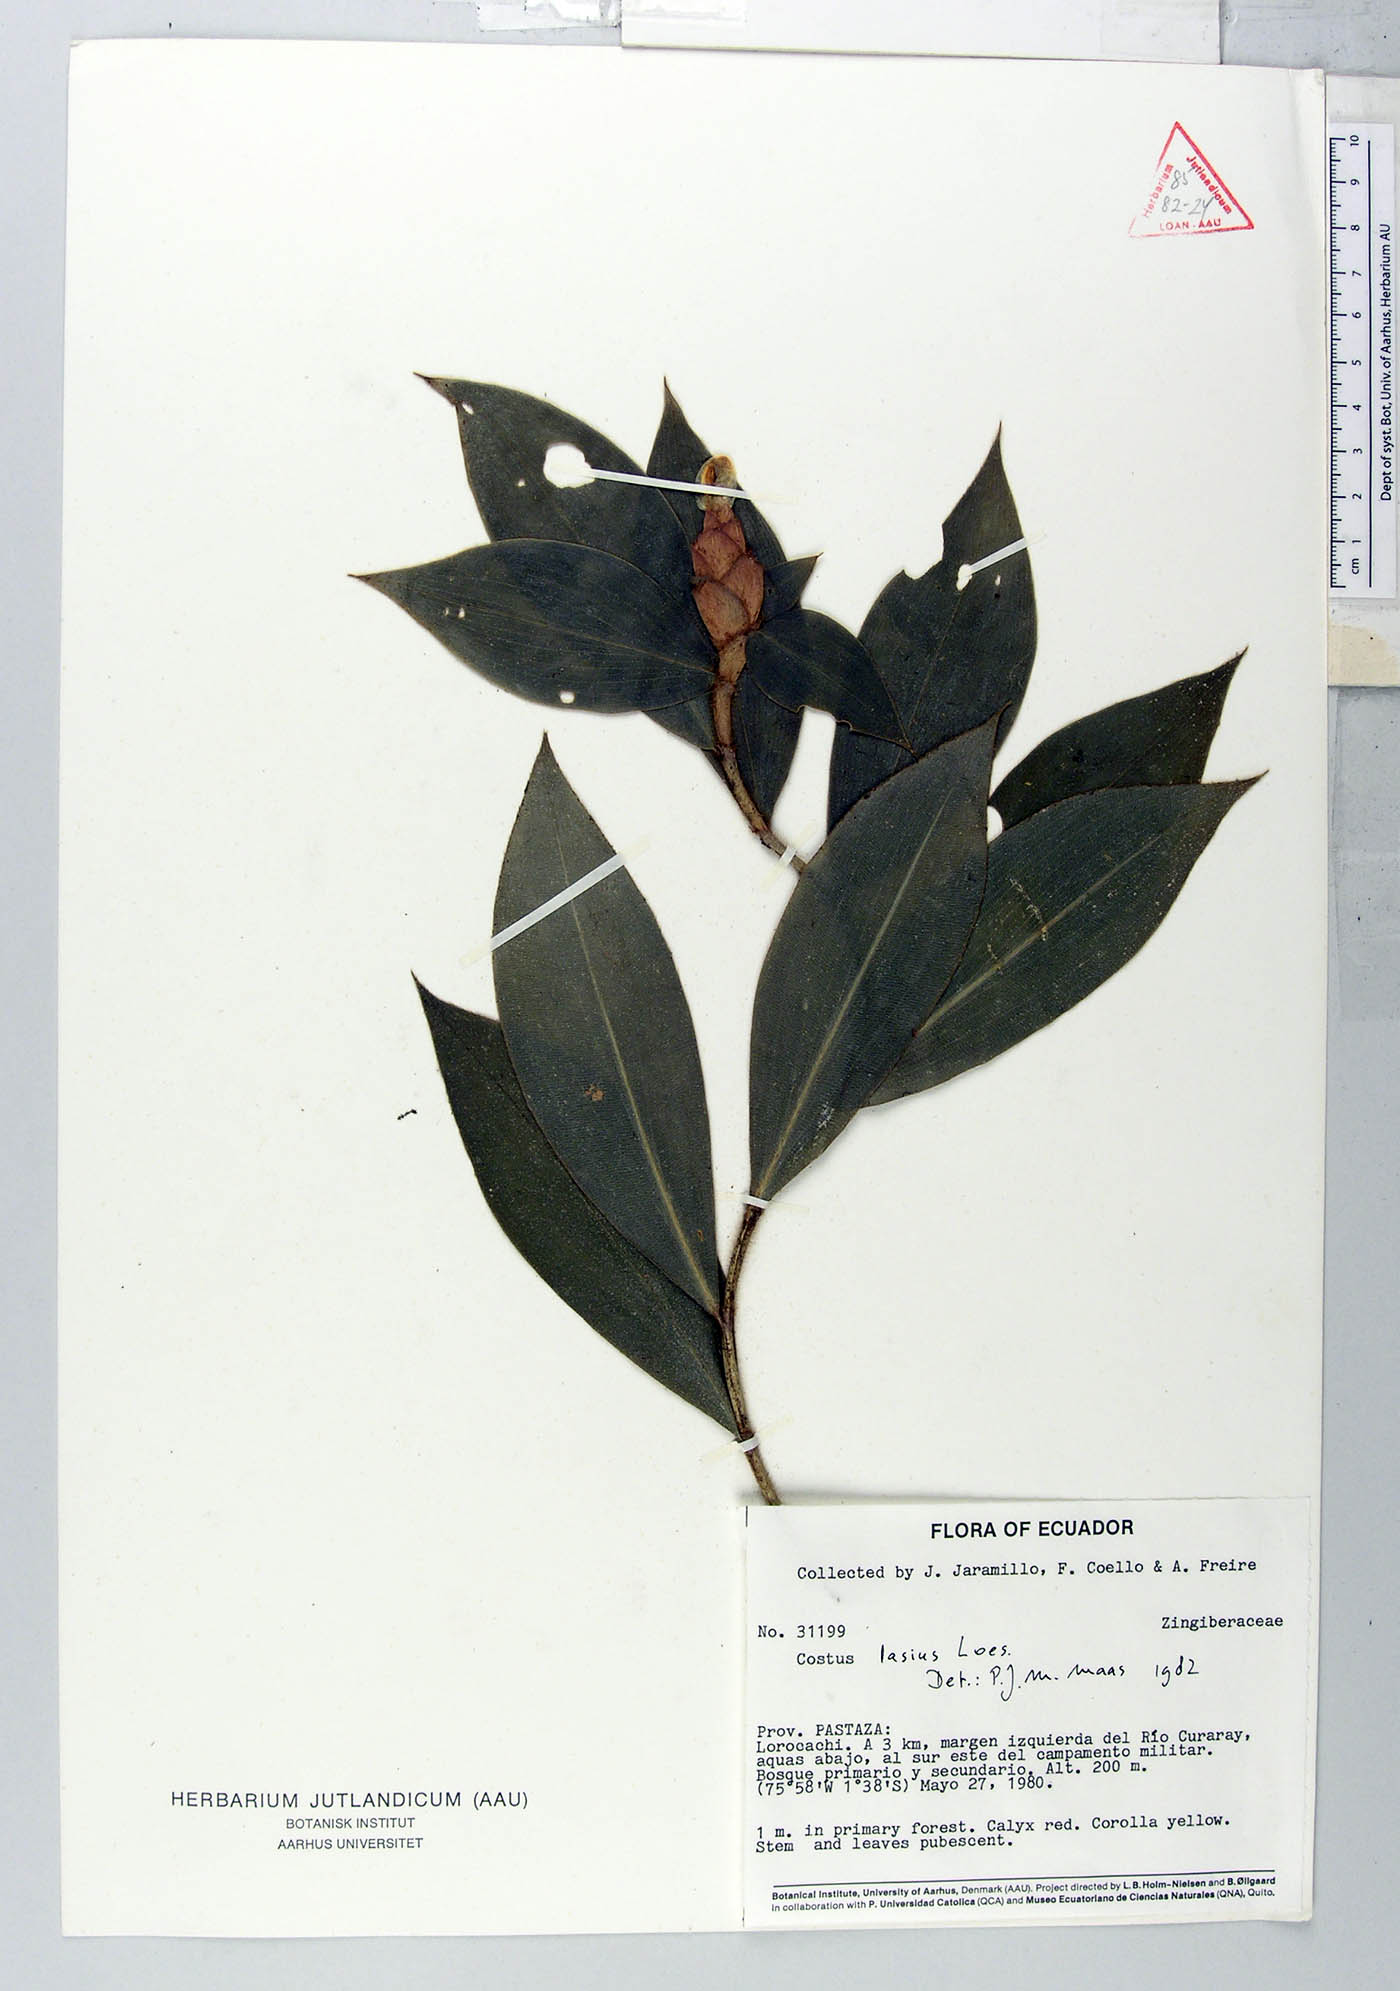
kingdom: Plantae
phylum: Tracheophyta
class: Liliopsida
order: Zingiberales
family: Costaceae
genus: Costus
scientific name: Costus lasius
